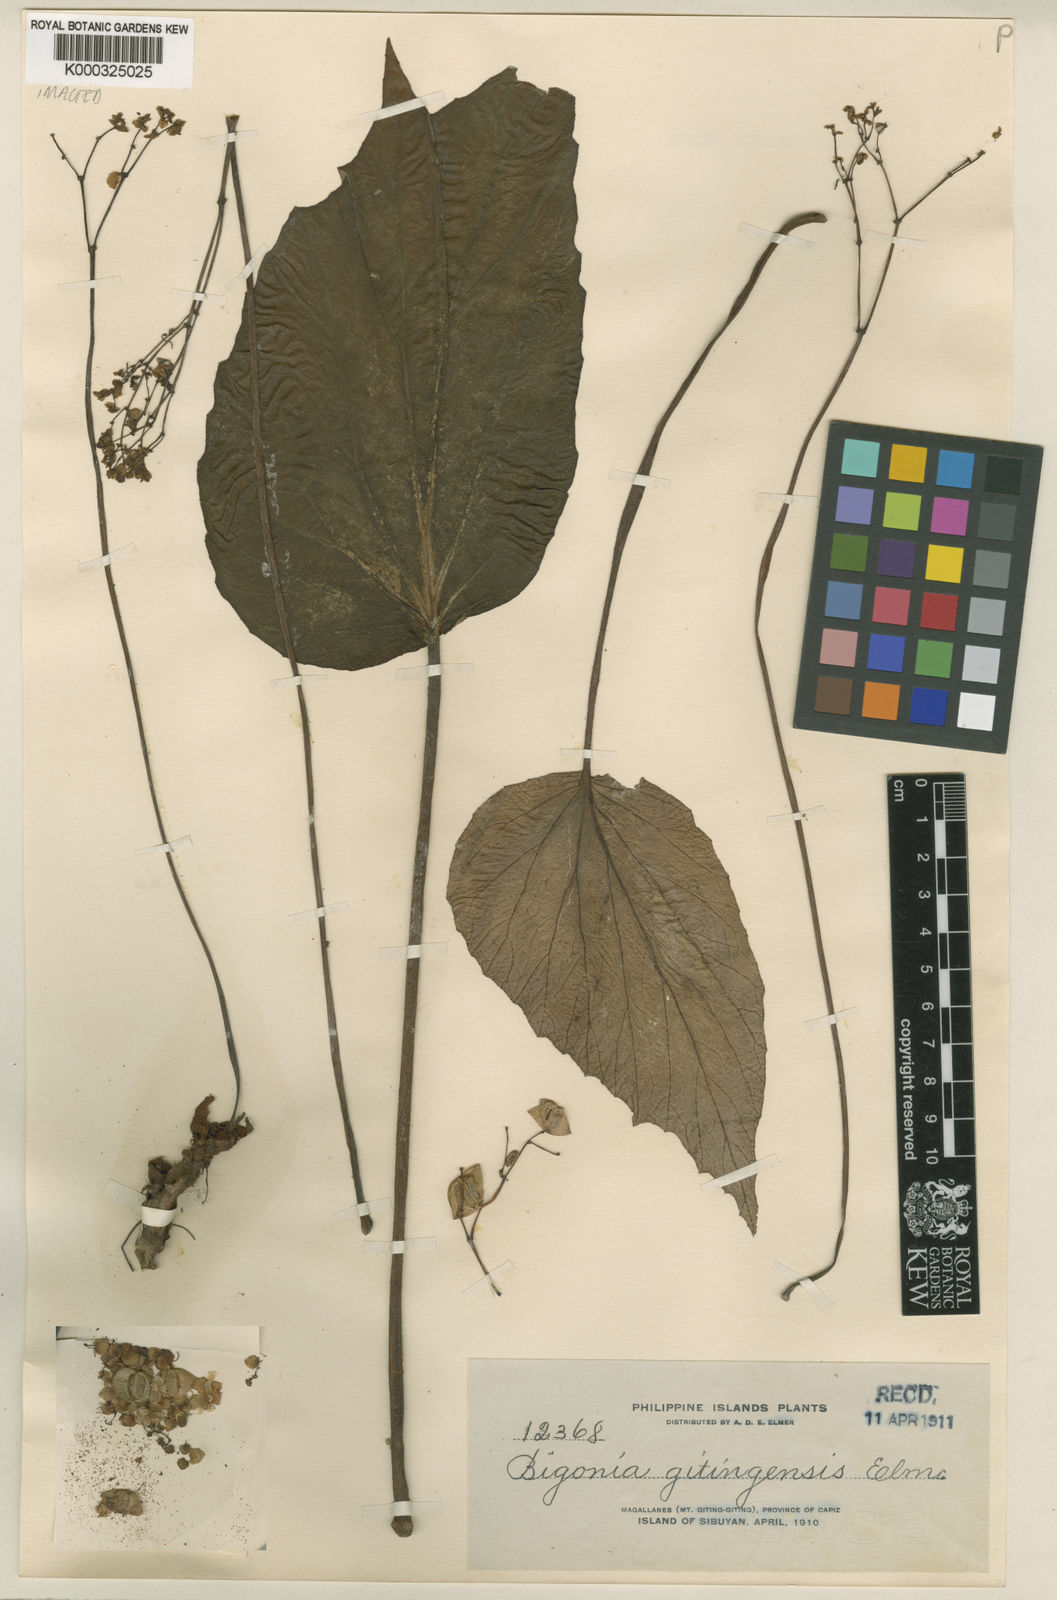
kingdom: Plantae
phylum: Tracheophyta
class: Magnoliopsida
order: Cucurbitales
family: Begoniaceae
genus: Begonia
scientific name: Begonia gitingensis
